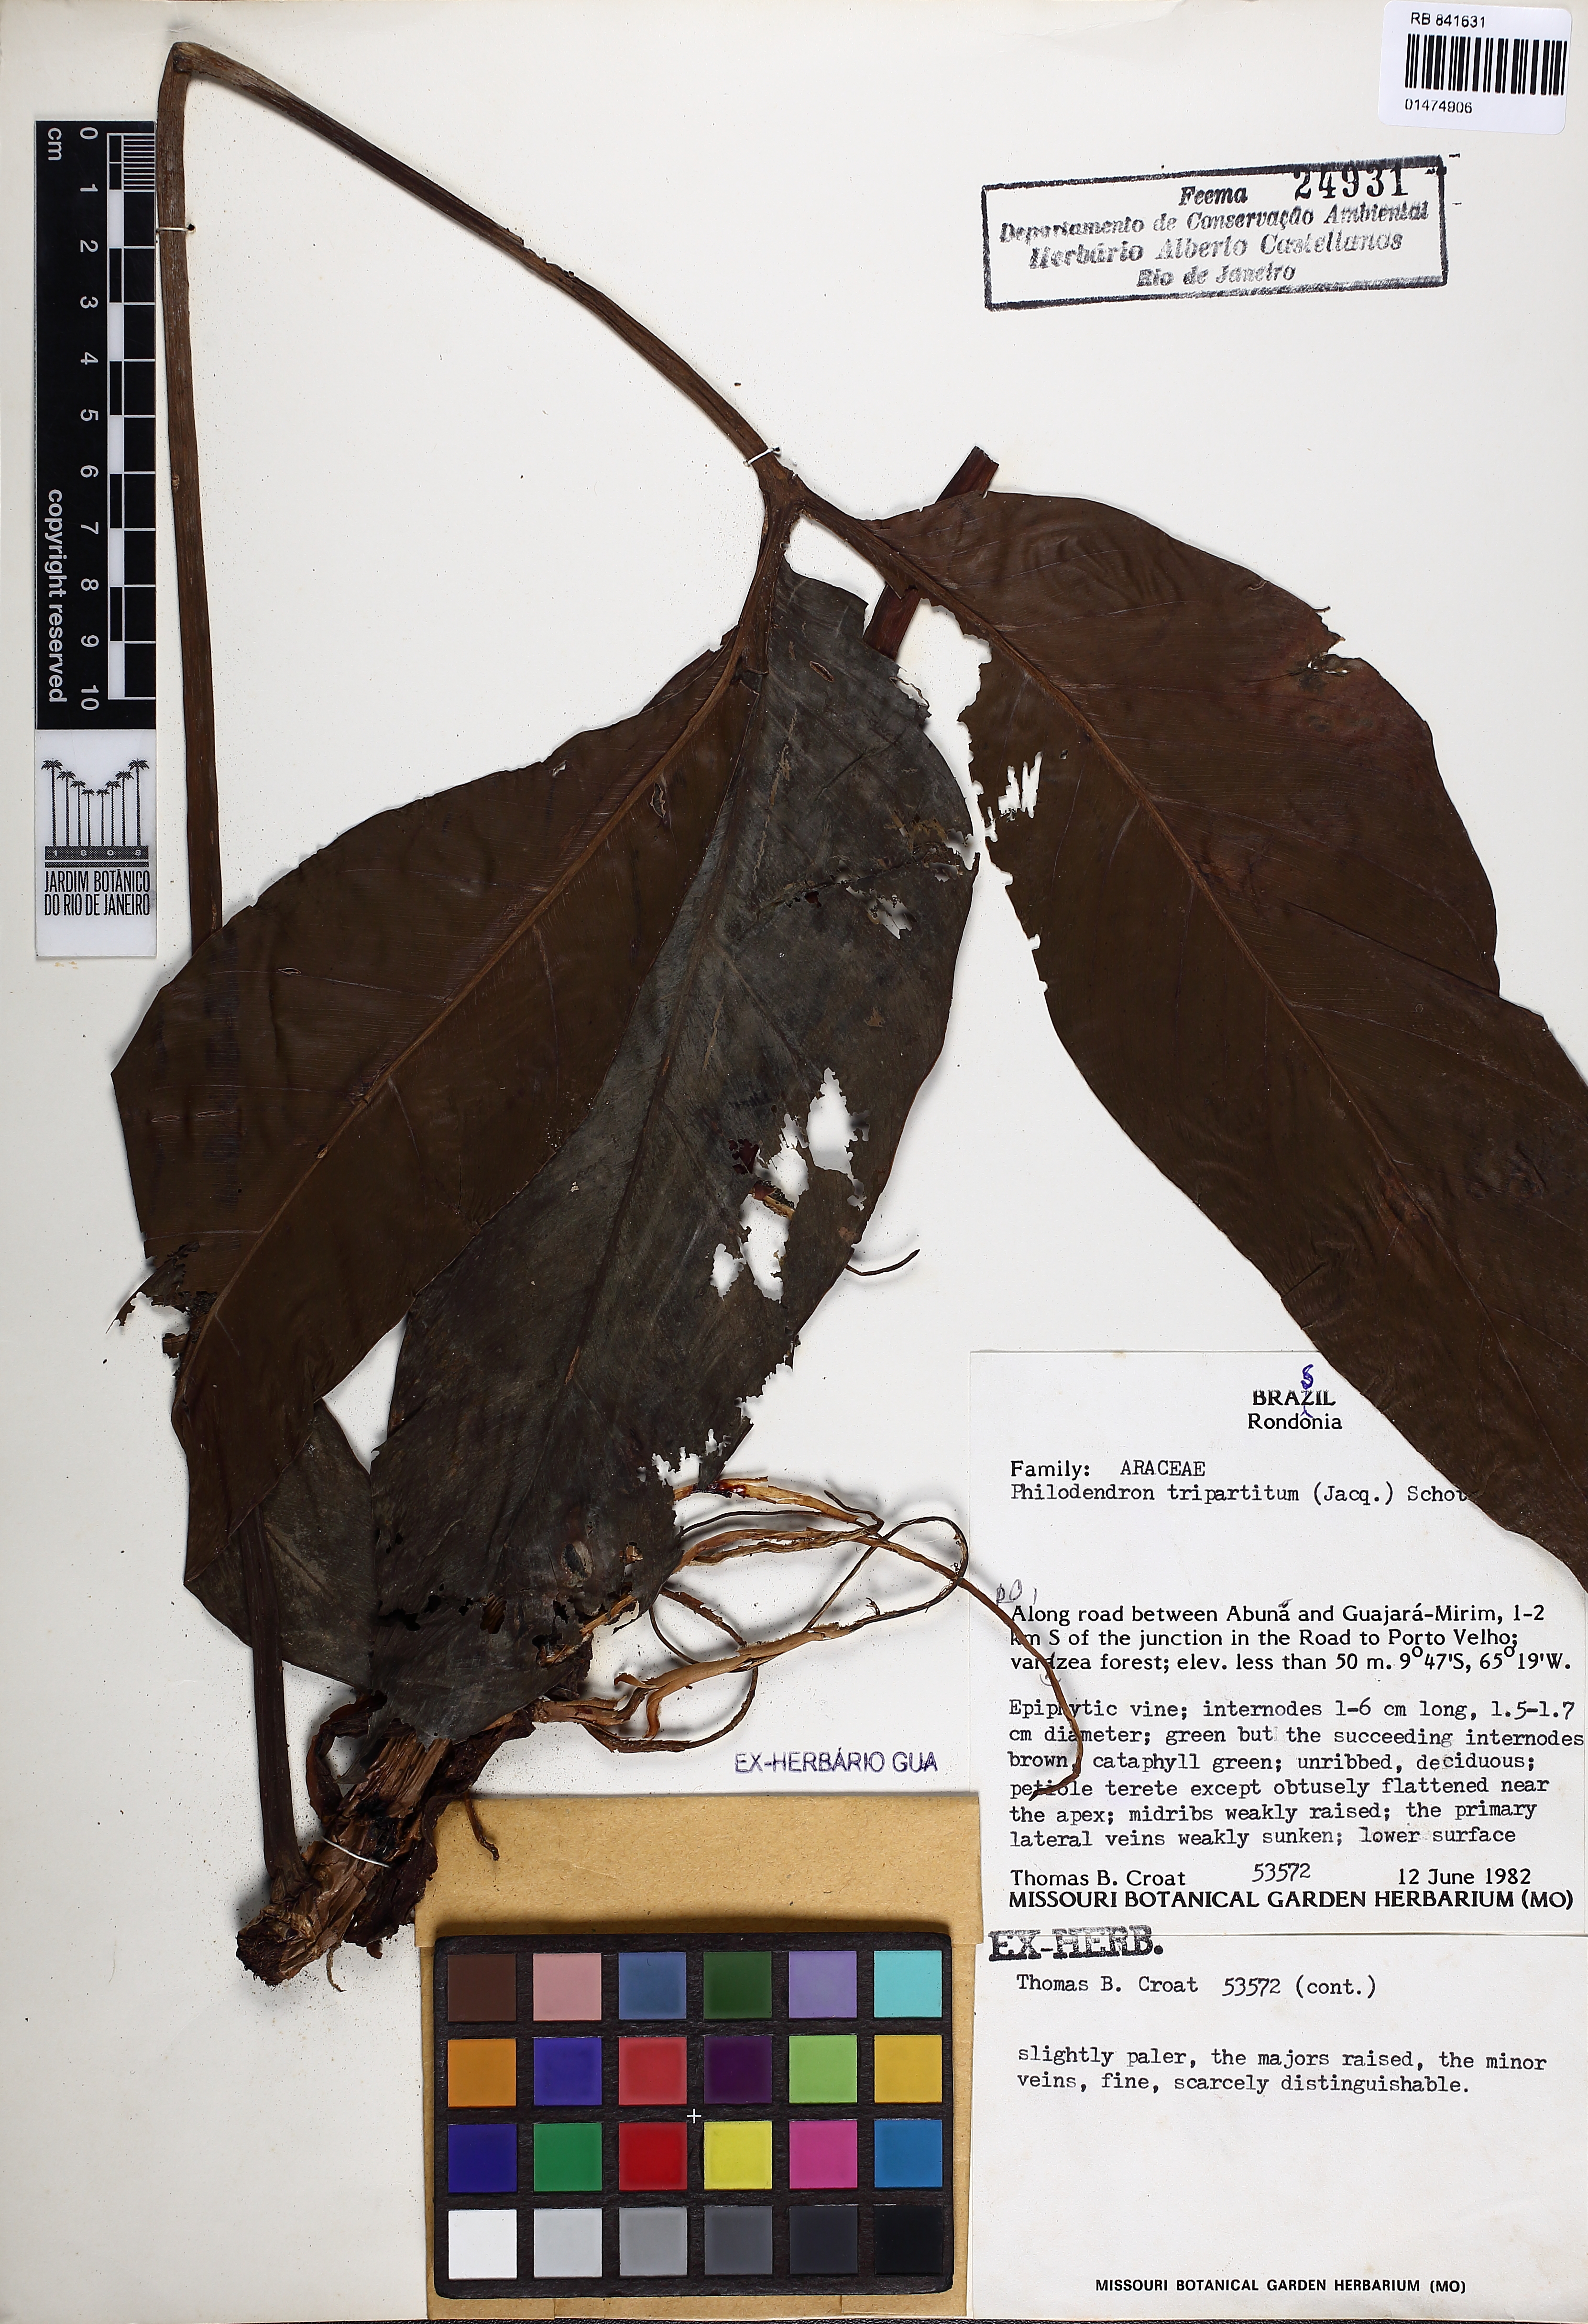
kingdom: Plantae
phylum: Tracheophyta
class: Liliopsida
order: Alismatales
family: Araceae
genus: Philodendron
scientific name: Philodendron tripartitum
